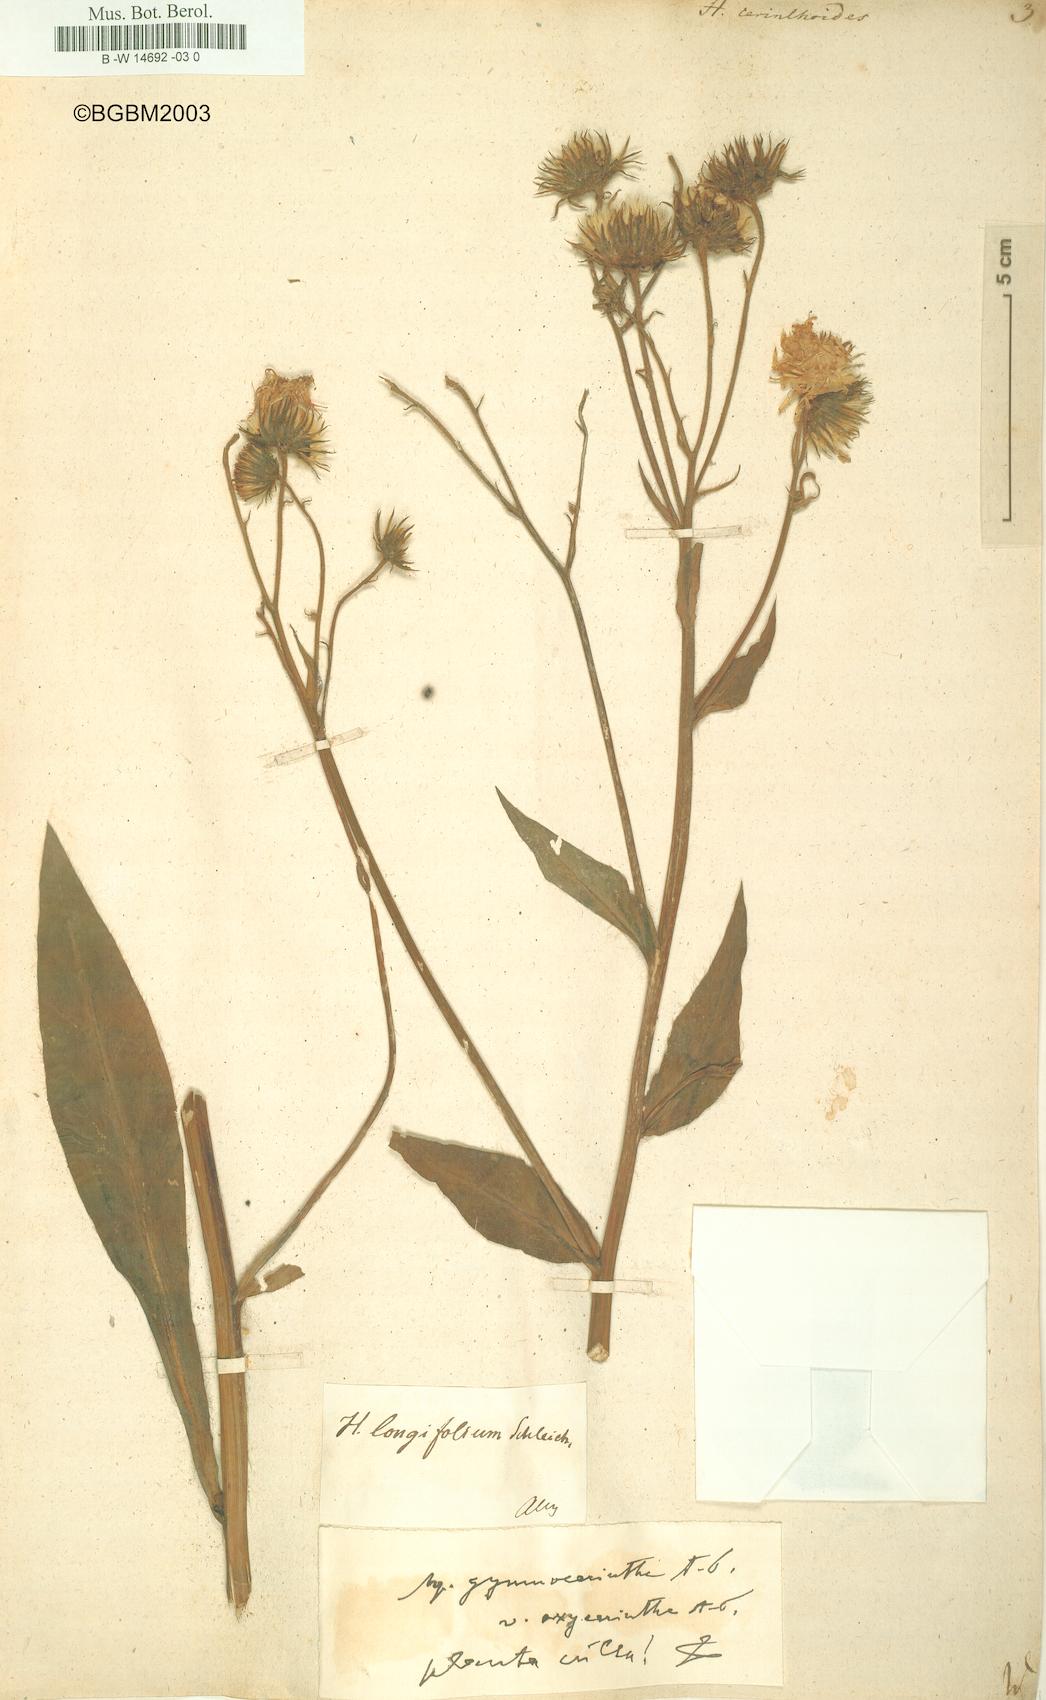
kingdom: Plantae
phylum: Tracheophyta
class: Magnoliopsida
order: Asterales
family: Asteraceae
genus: Hieracium
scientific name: Hieracium cerinthoides
